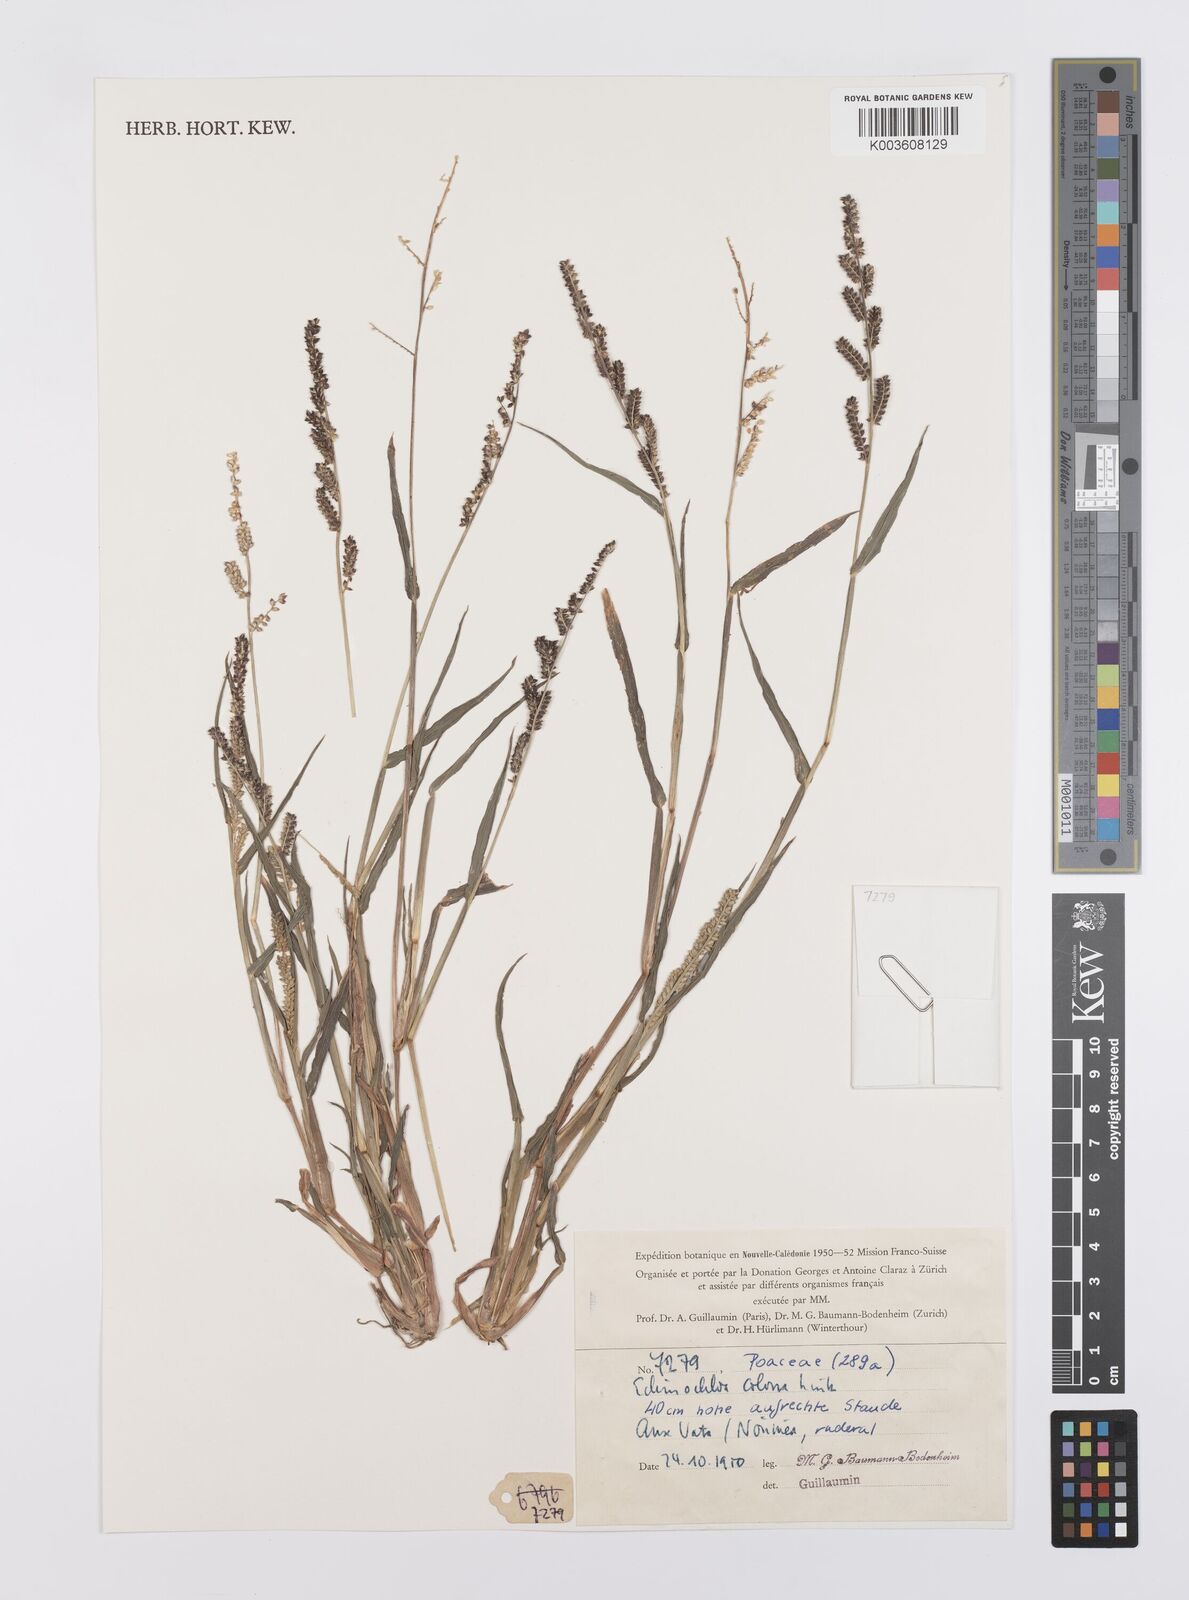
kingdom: Plantae
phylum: Tracheophyta
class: Liliopsida
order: Poales
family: Poaceae
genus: Echinochloa
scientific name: Echinochloa colonum
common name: Jungle rice
